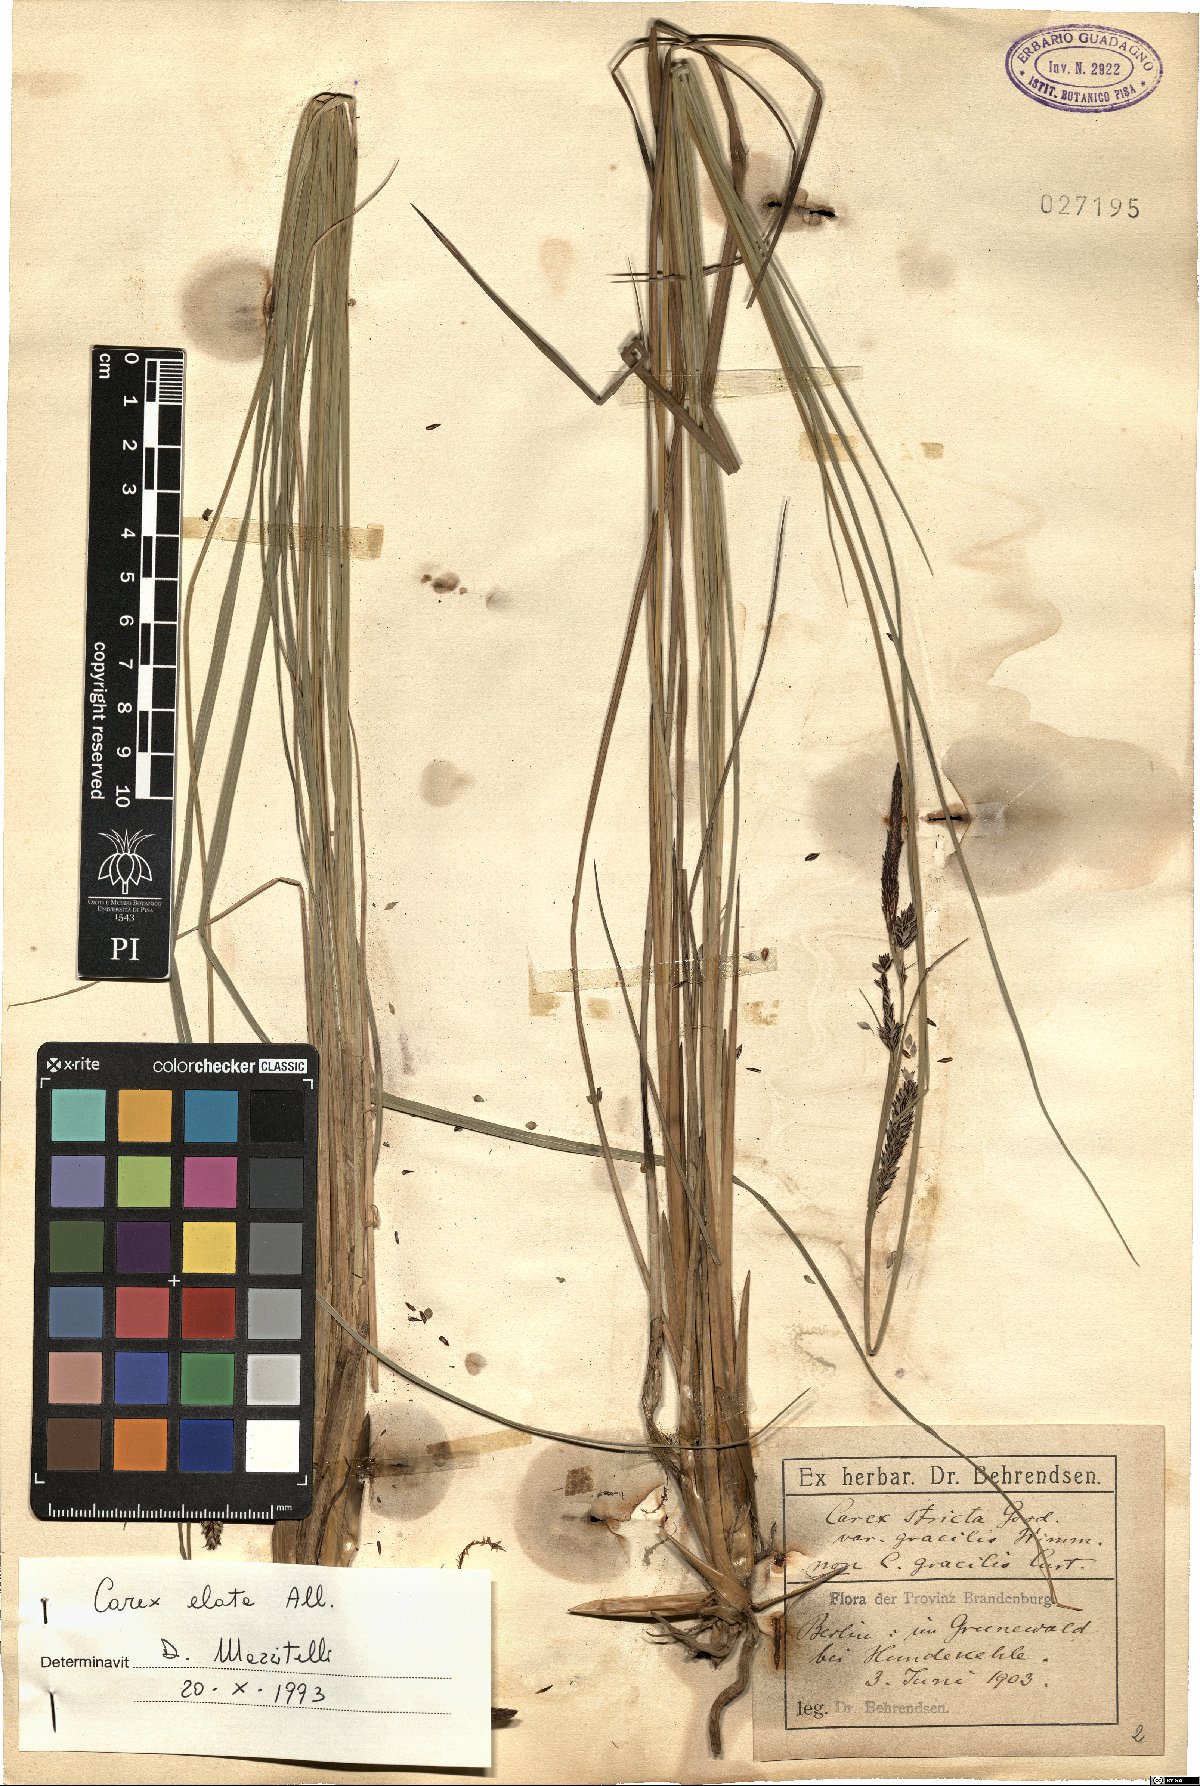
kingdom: Plantae
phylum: Tracheophyta
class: Liliopsida
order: Poales
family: Cyperaceae
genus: Carex
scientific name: Carex elata
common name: Tufted sedge
